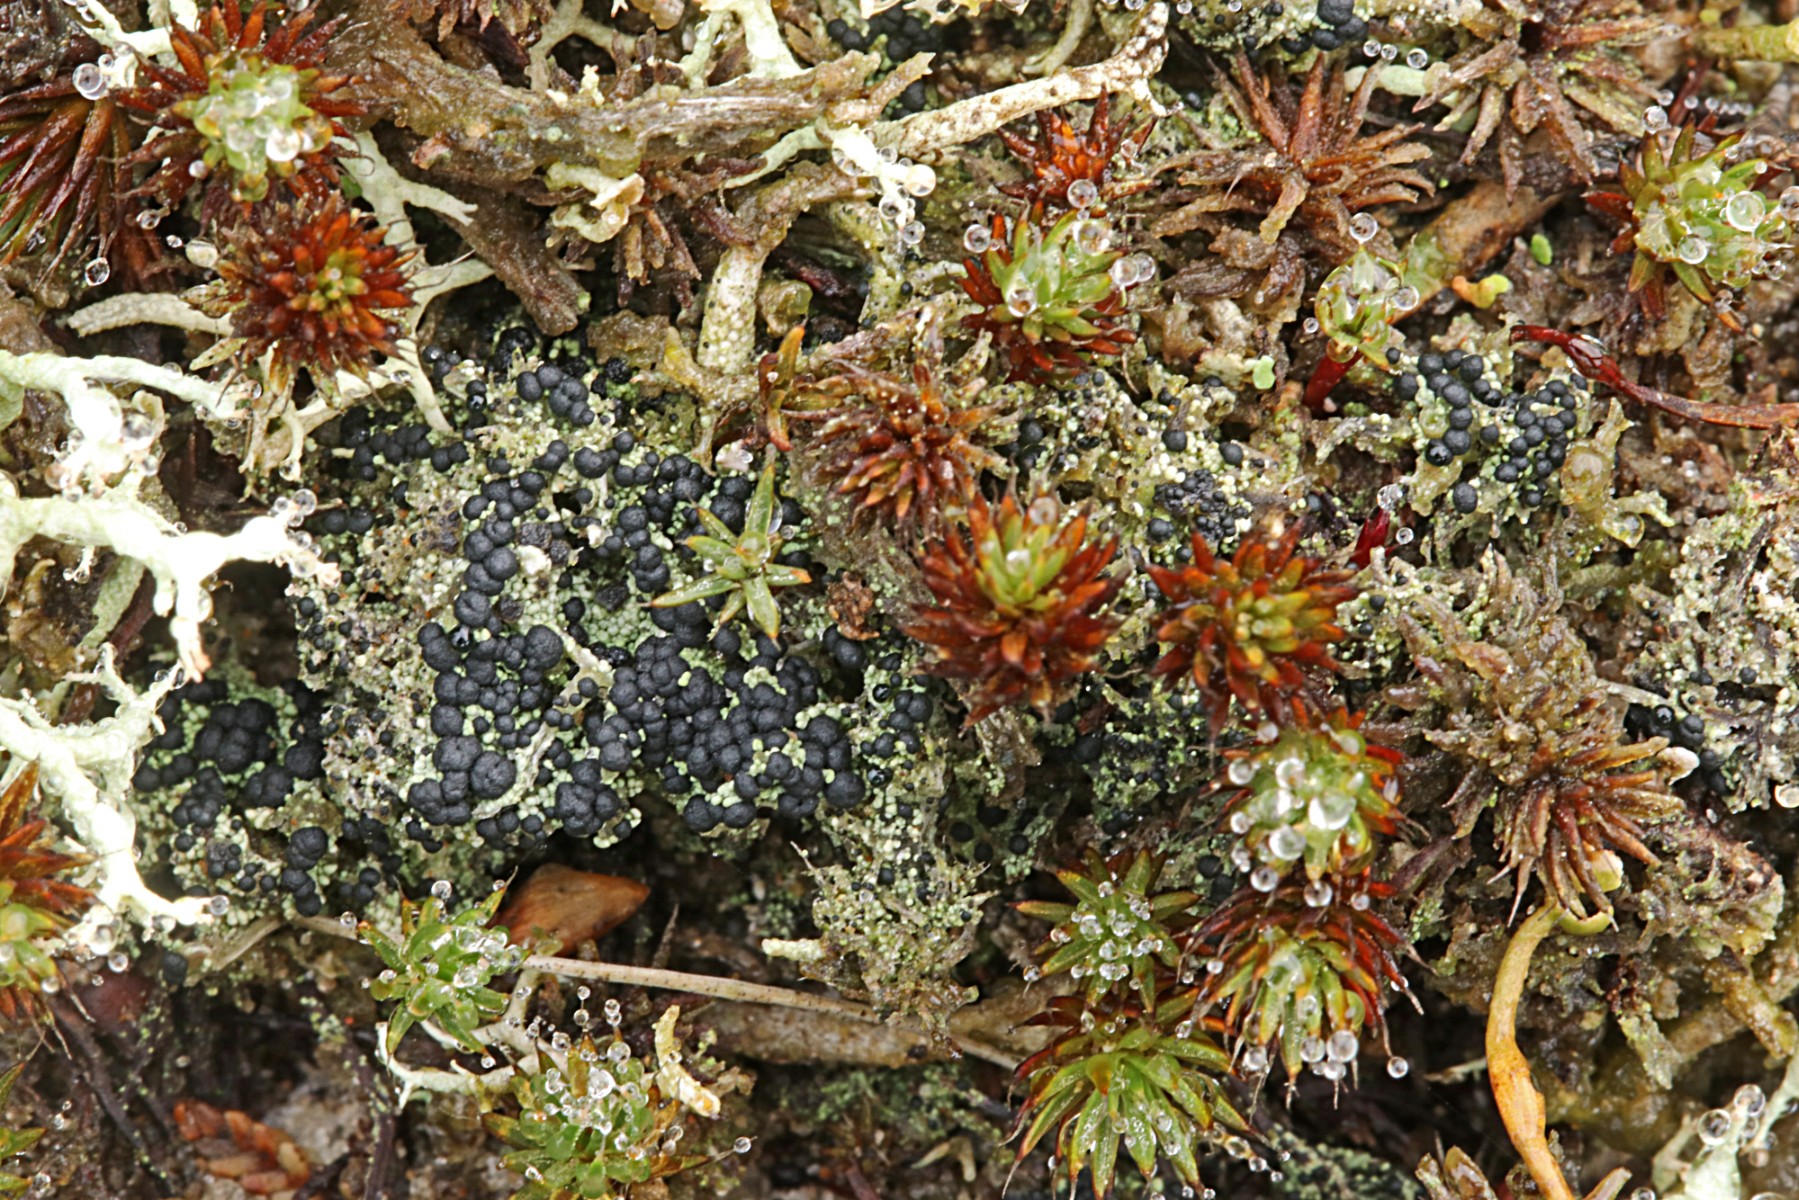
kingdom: Fungi
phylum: Ascomycota
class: Lecanoromycetes
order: Lecanorales
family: Byssolomataceae
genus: Micarea
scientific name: Micarea lignaria
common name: tørve-knaplav
